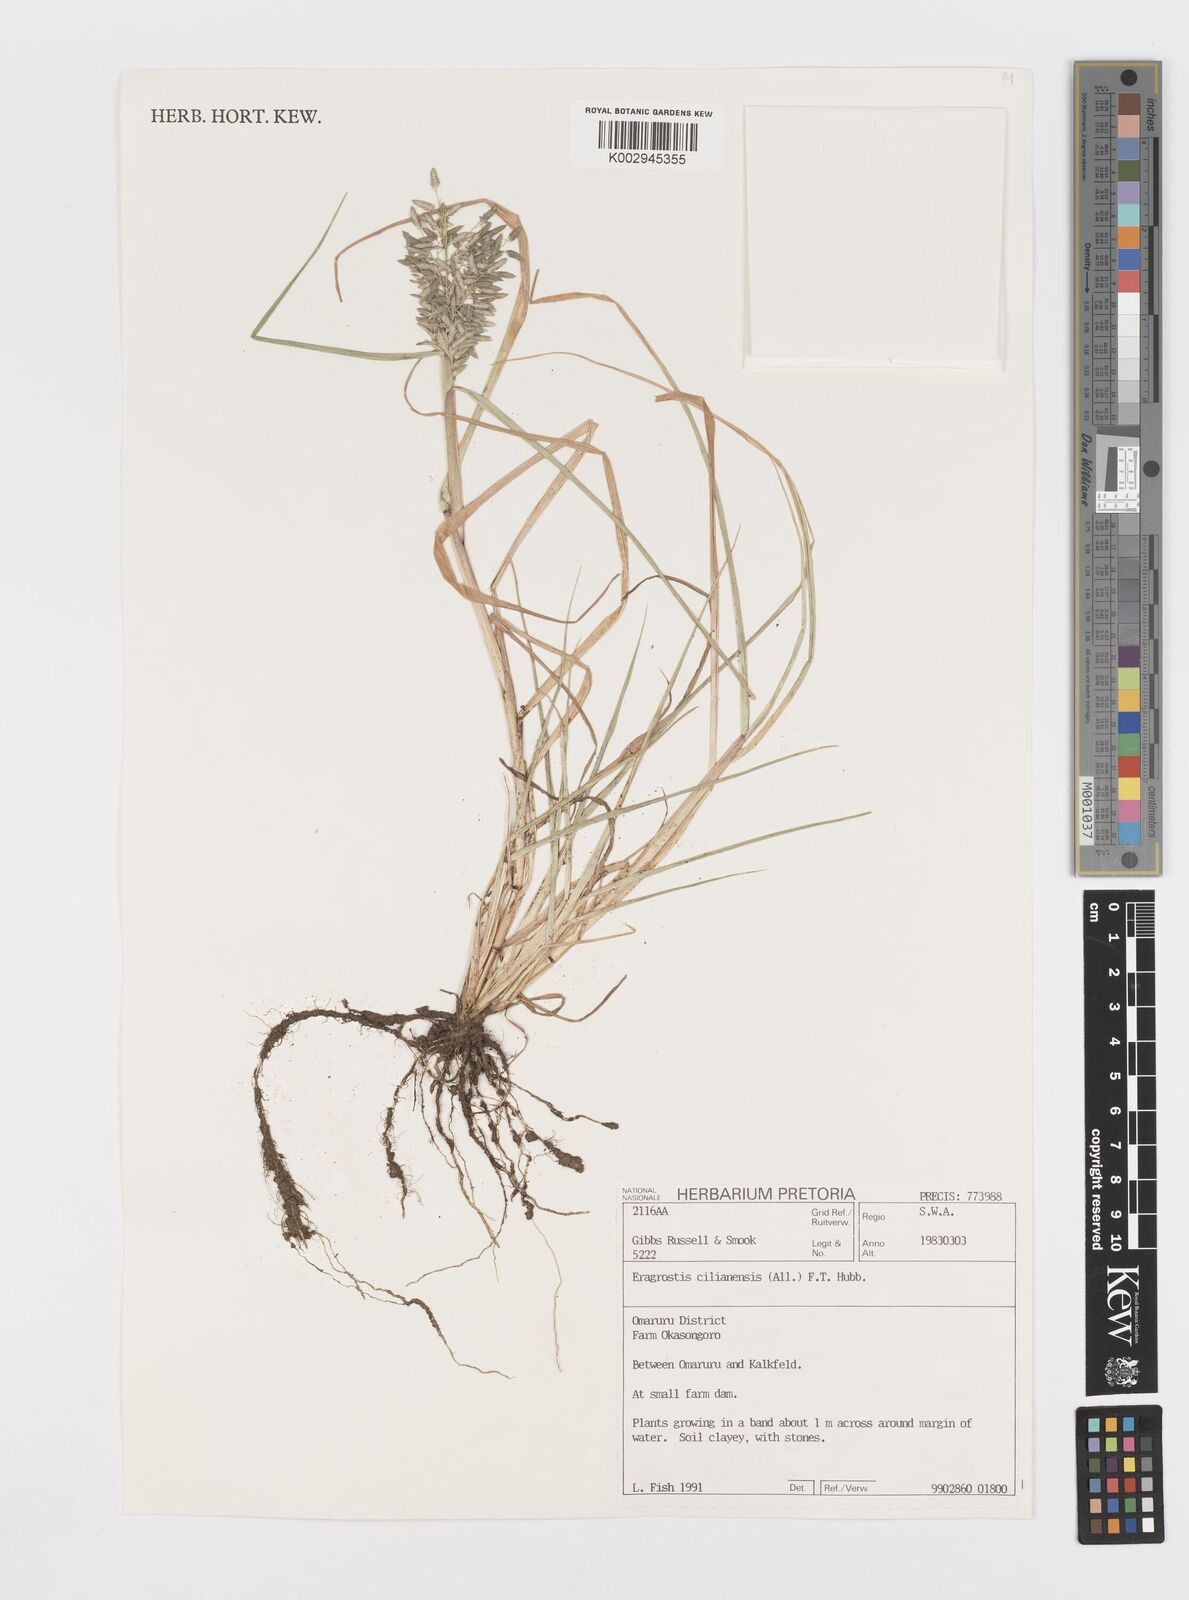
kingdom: Plantae
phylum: Tracheophyta
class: Liliopsida
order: Poales
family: Poaceae
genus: Eragrostis
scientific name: Eragrostis cilianensis
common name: Stinkgrass
